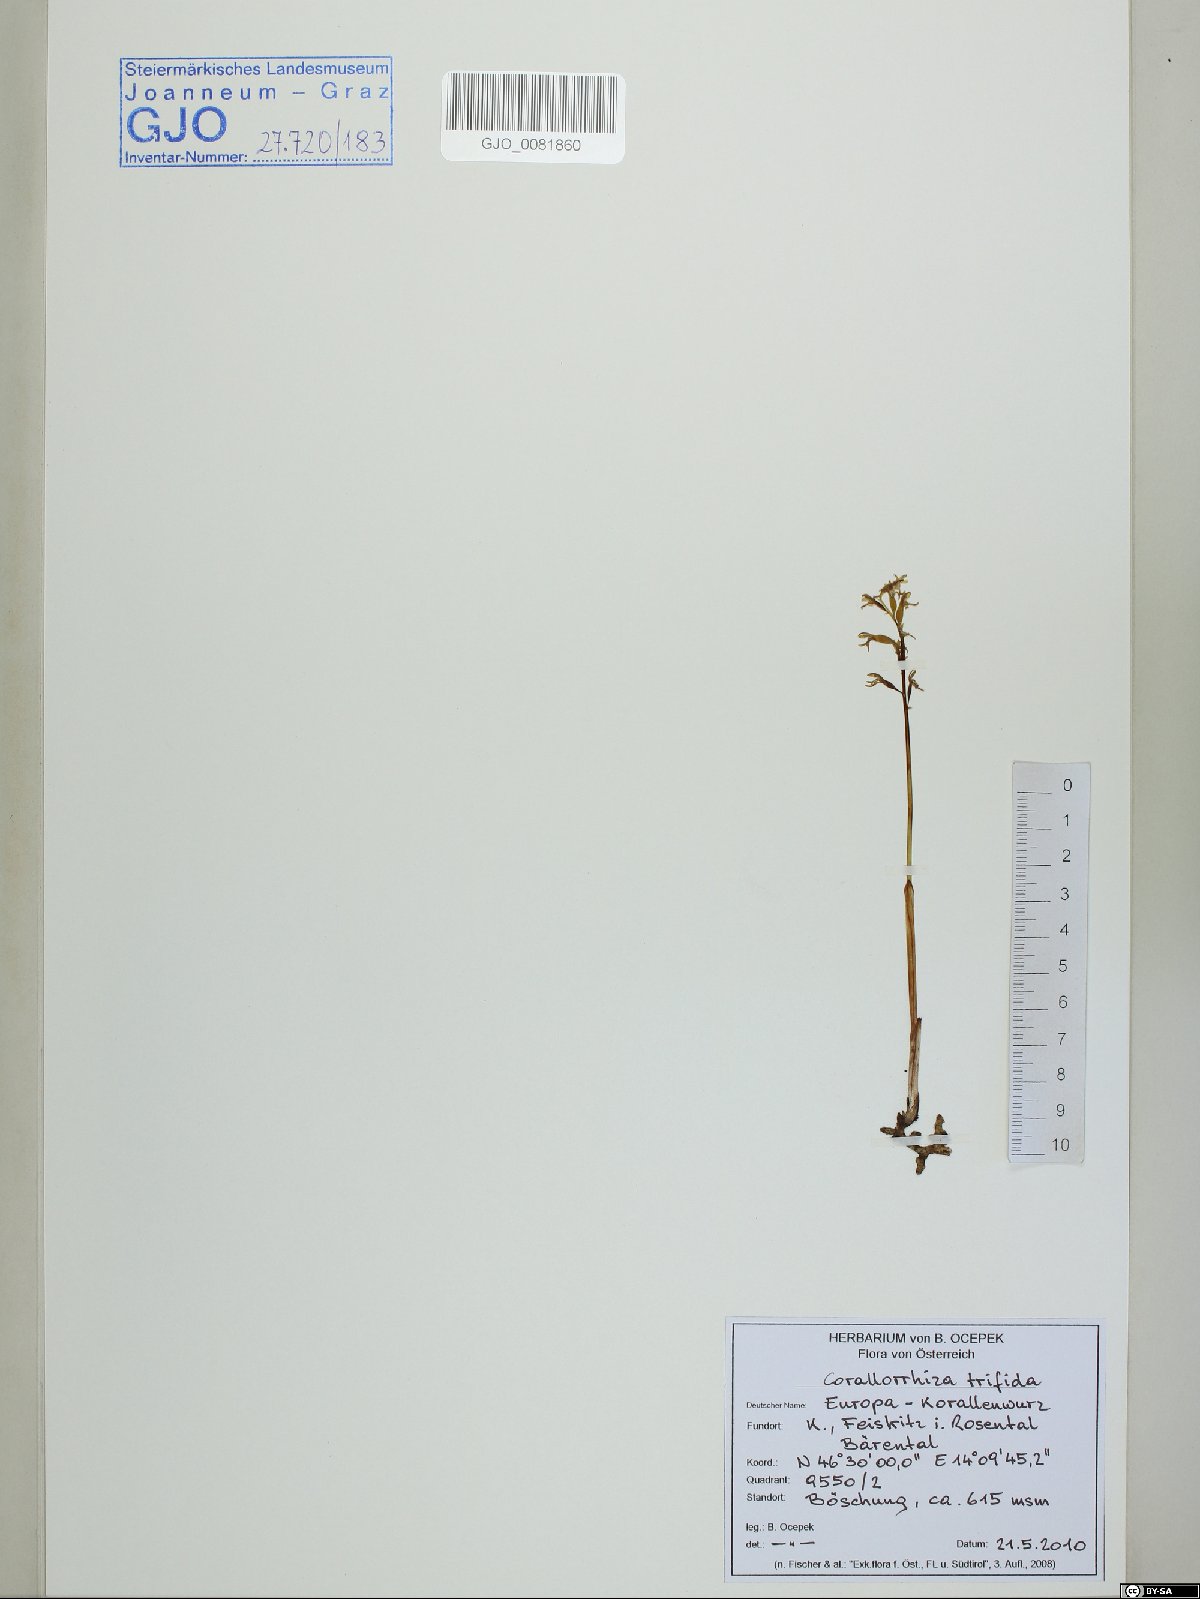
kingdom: Plantae
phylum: Tracheophyta
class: Liliopsida
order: Asparagales
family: Orchidaceae
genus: Corallorhiza
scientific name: Corallorhiza trifida
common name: Yellow coralroot
